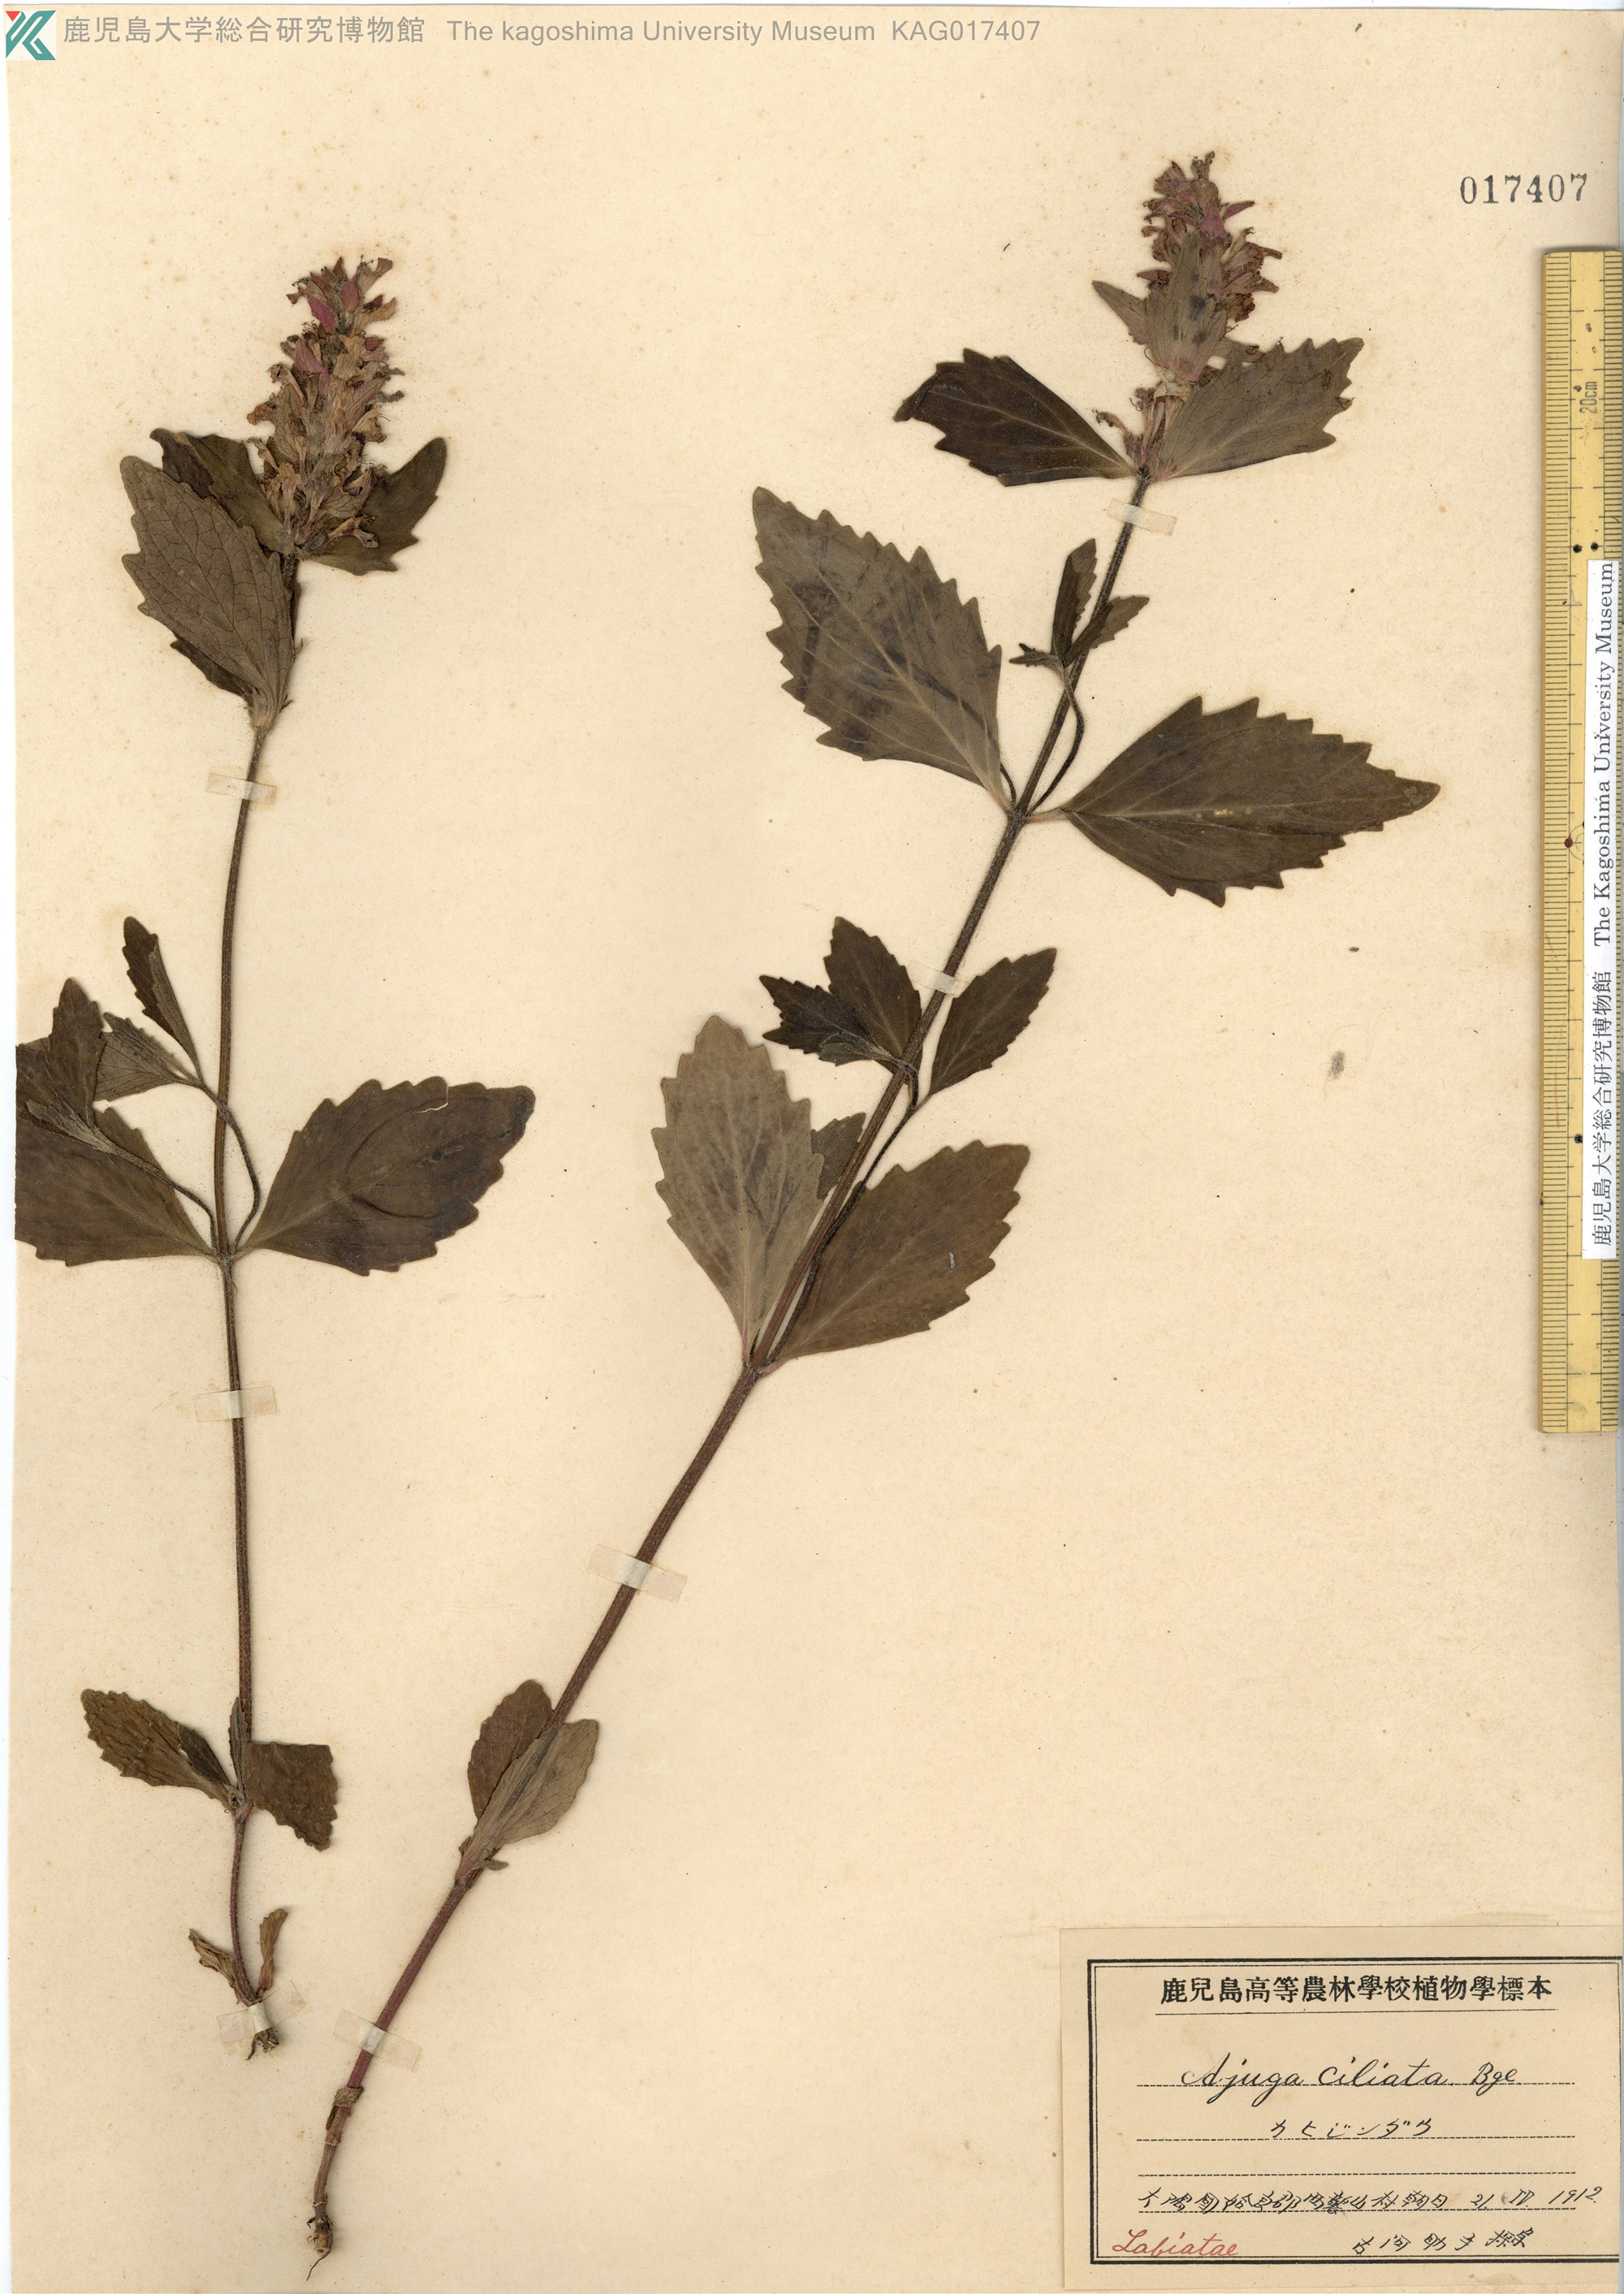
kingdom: Plantae
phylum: Tracheophyta
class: Magnoliopsida
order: Lamiales
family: Lamiaceae
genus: Ajuga
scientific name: Ajuga ciliata
